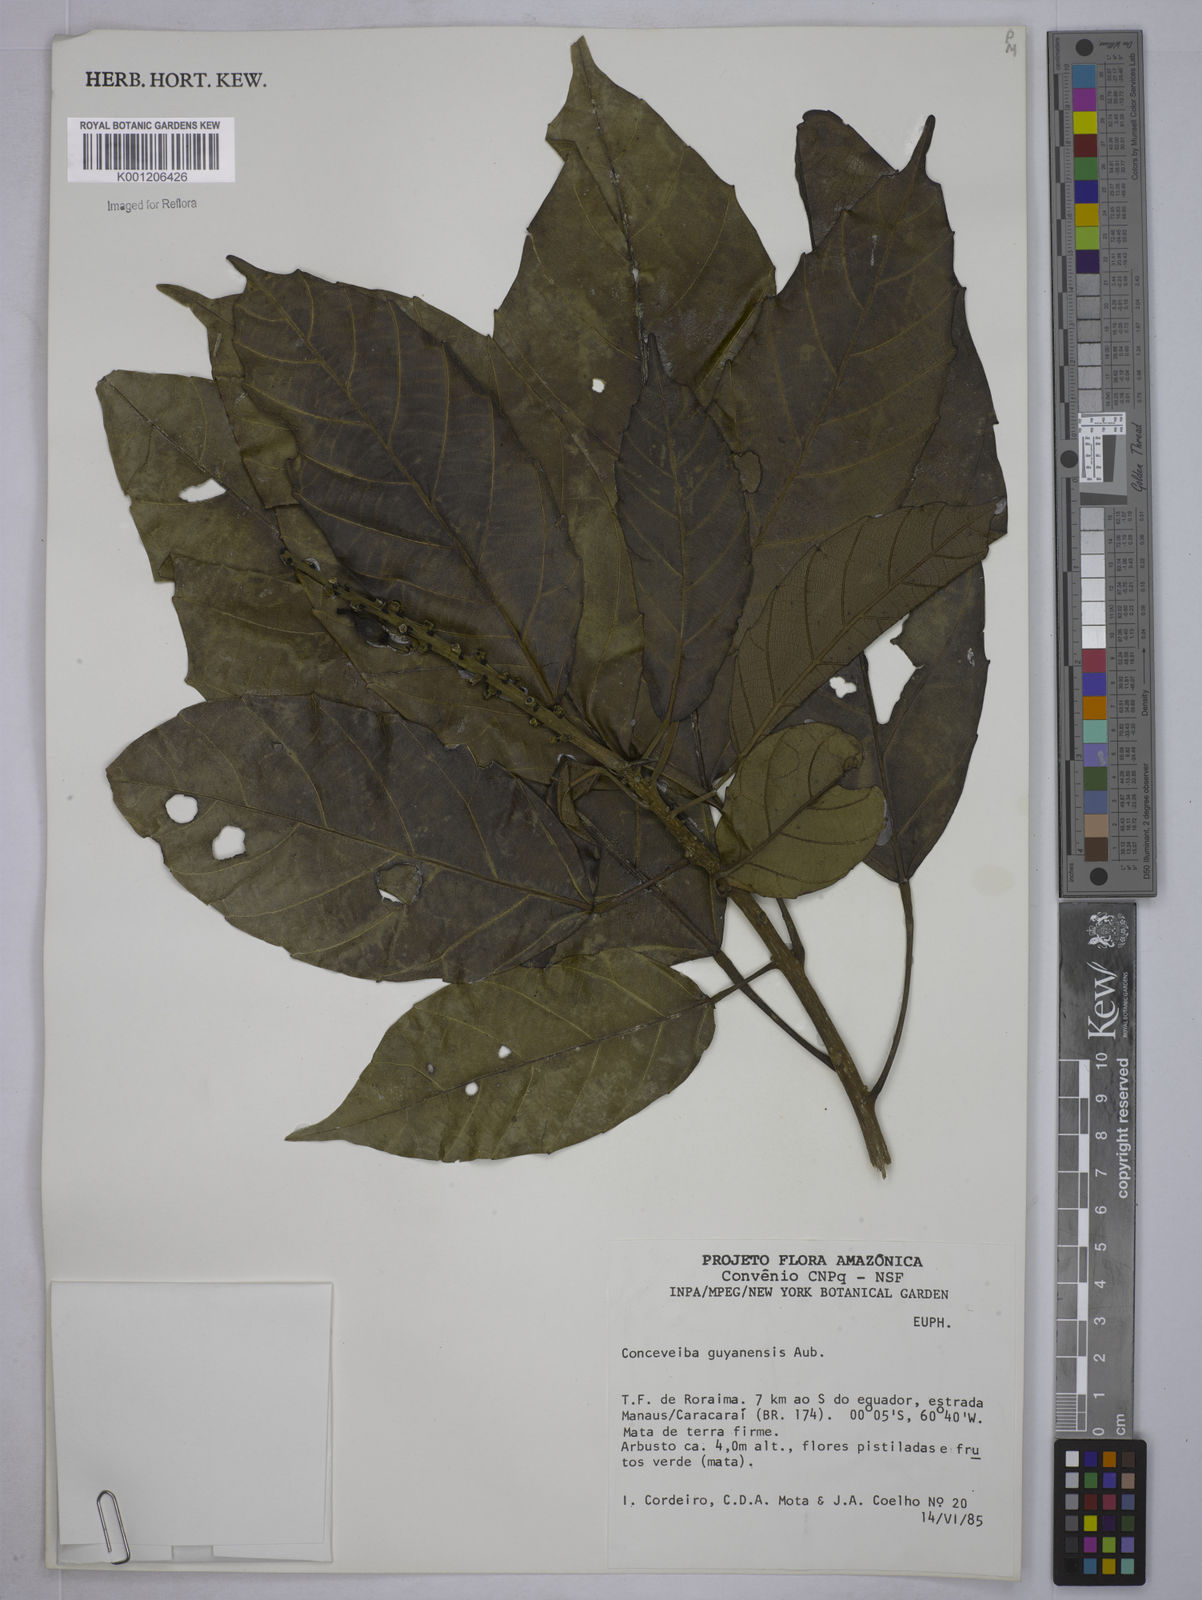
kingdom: Plantae
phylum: Tracheophyta
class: Magnoliopsida
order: Malpighiales
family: Euphorbiaceae
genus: Conceveiba
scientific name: Conceveiba guianensis
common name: Poatoru
